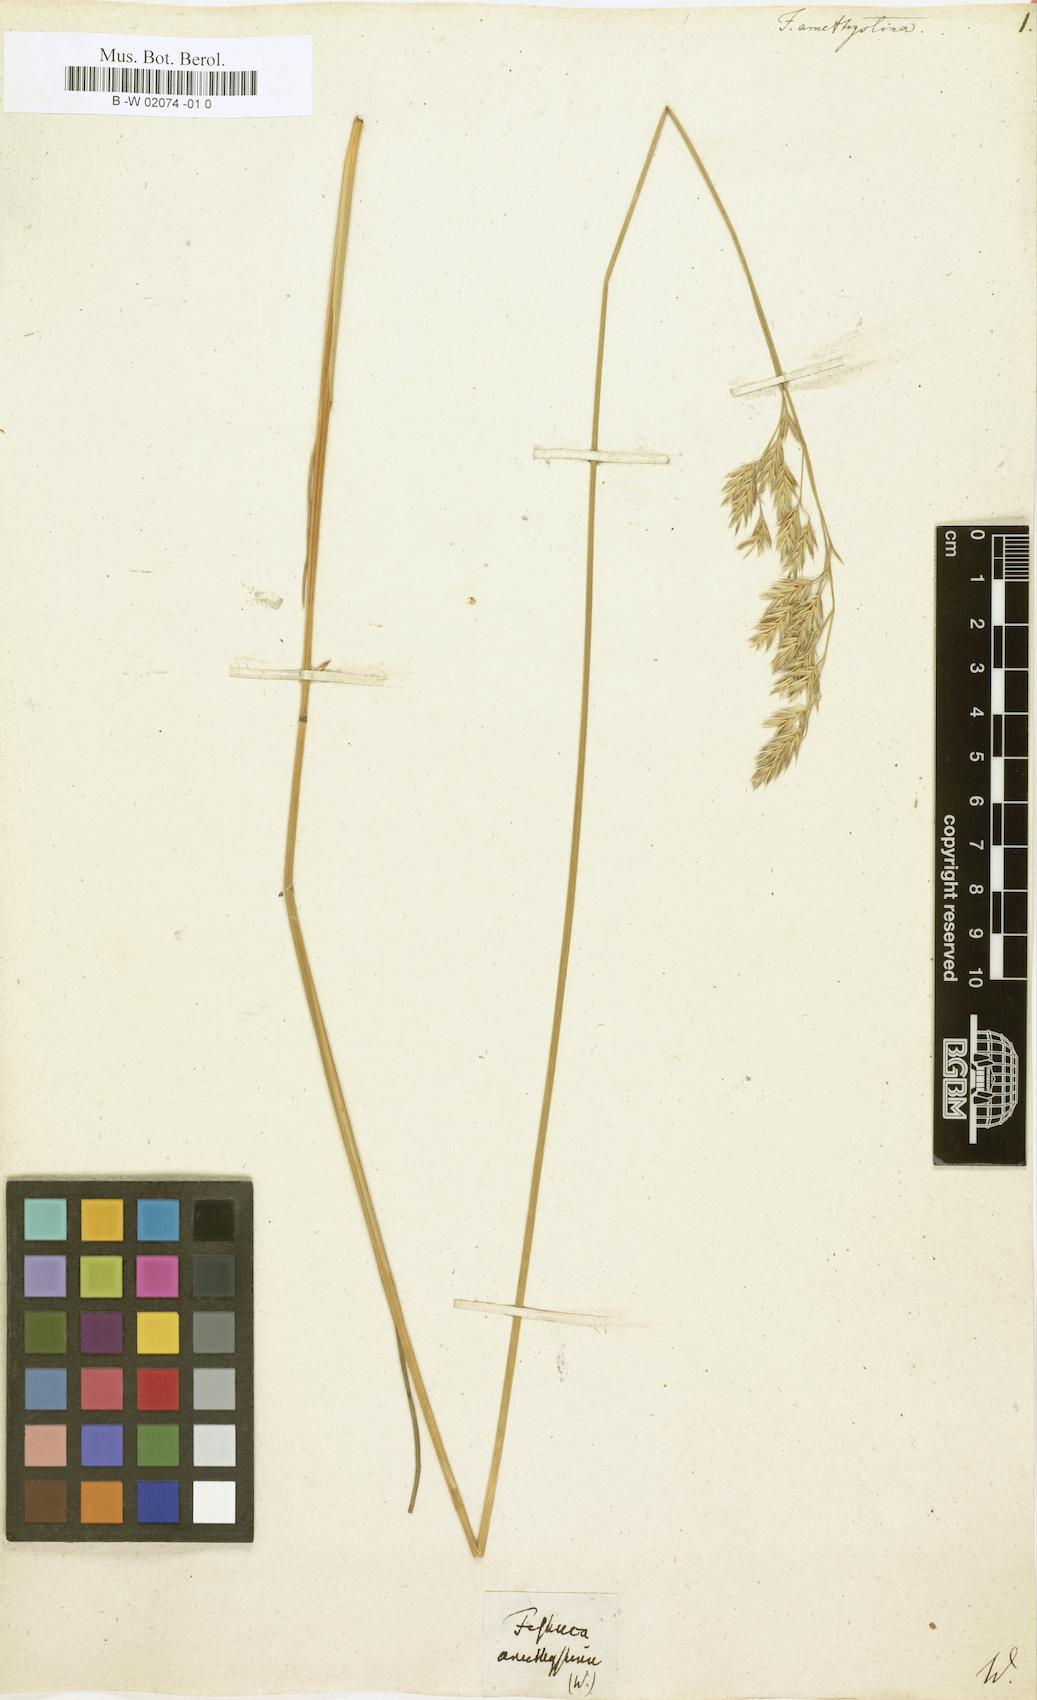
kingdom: Plantae
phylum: Tracheophyta
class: Liliopsida
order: Poales
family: Poaceae
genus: Festuca
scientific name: Festuca amethystina
